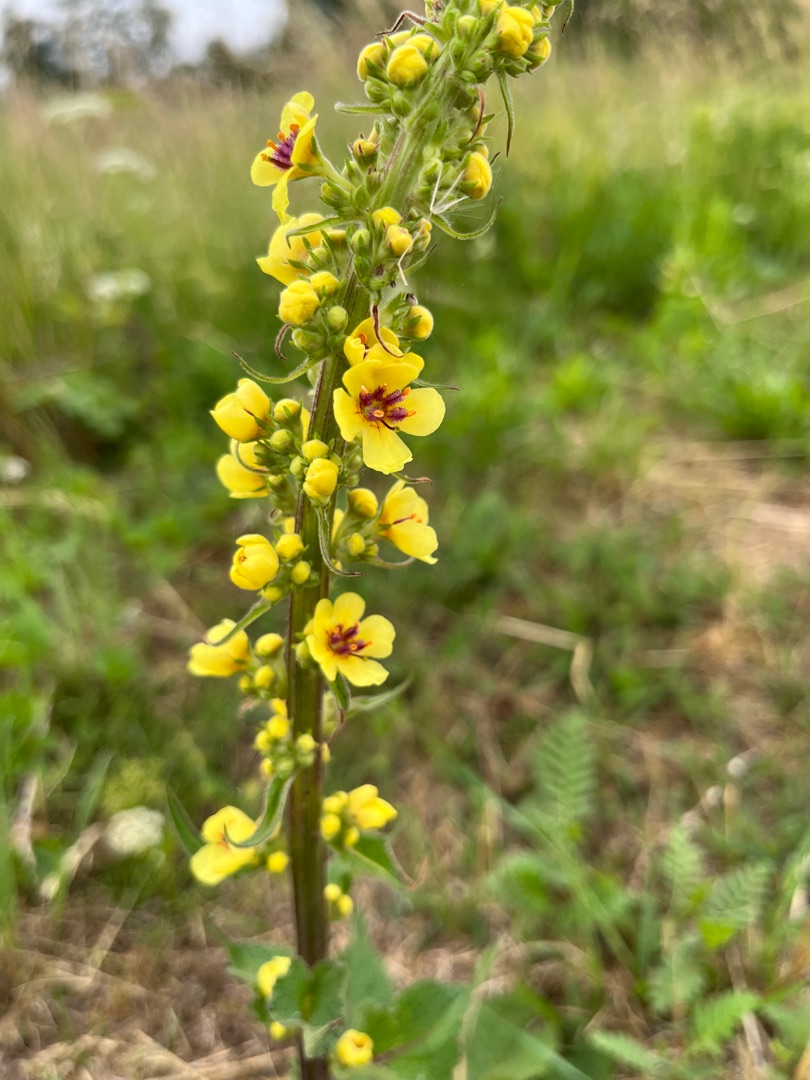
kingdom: Plantae
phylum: Tracheophyta
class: Magnoliopsida
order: Lamiales
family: Scrophulariaceae
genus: Verbascum
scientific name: Verbascum nigrum
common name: Mørk kongelys
